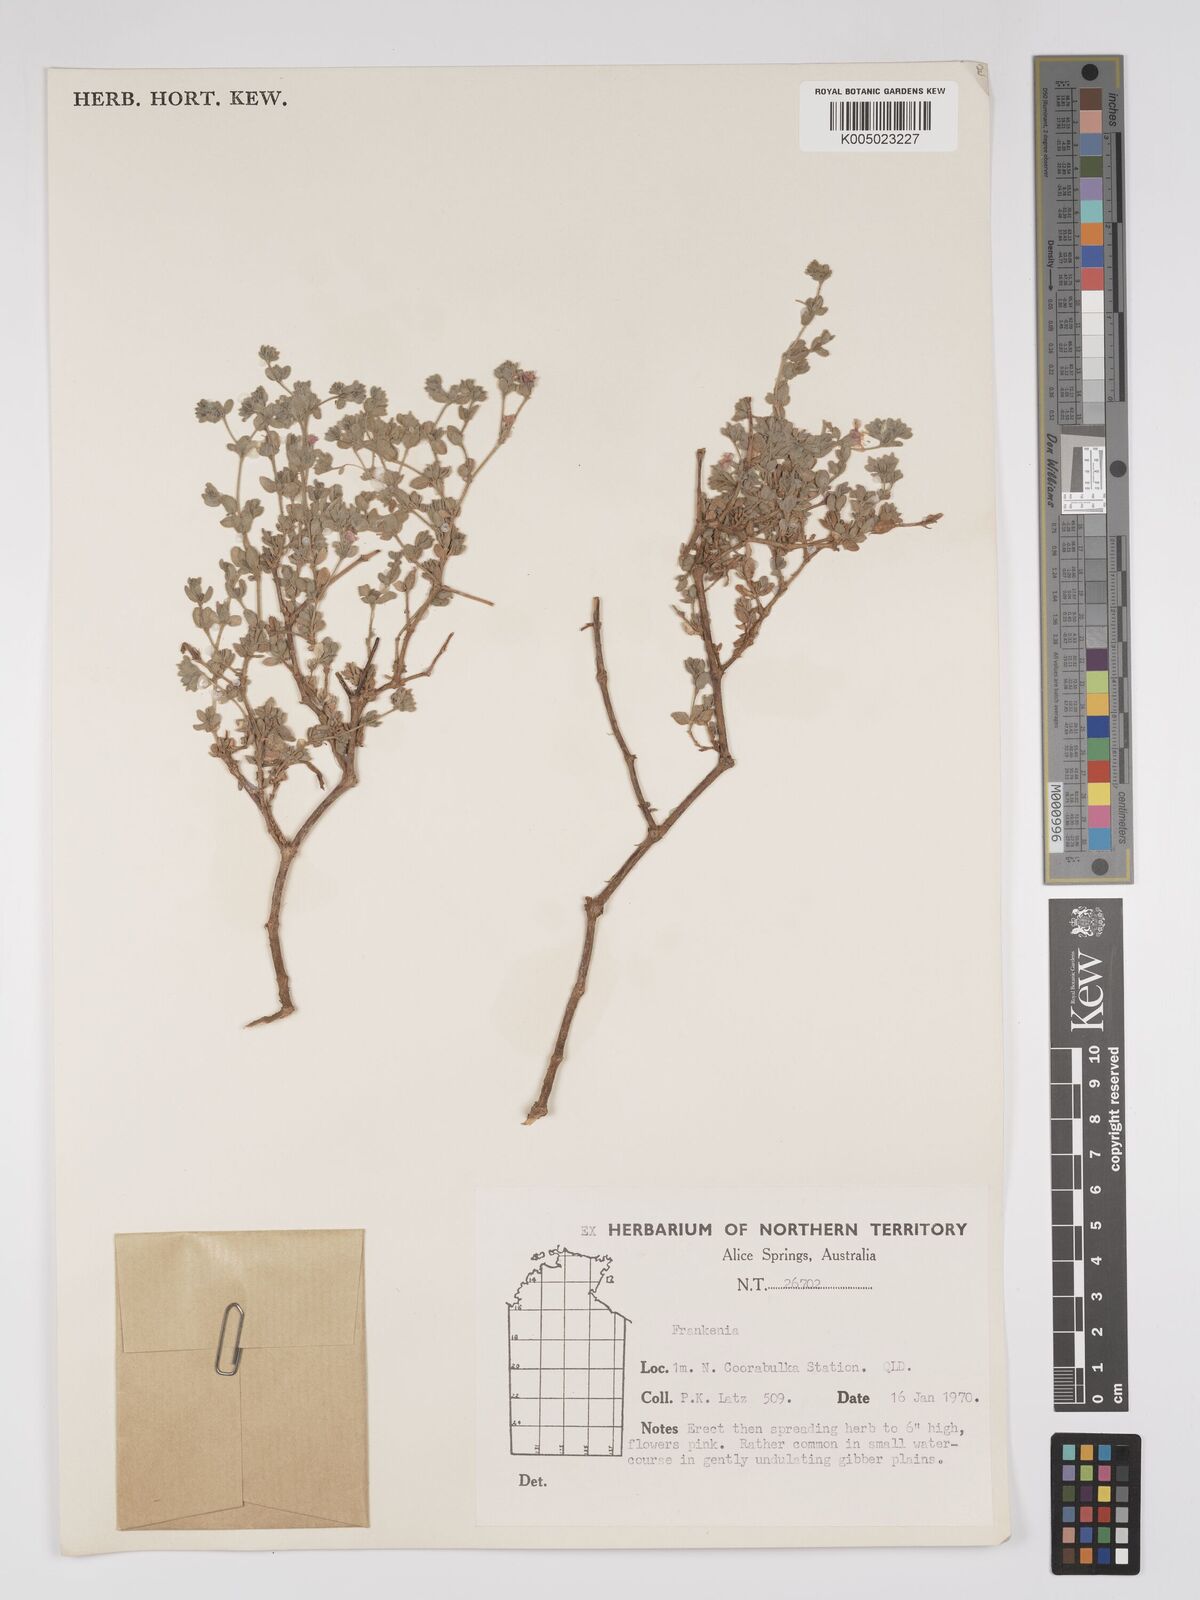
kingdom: Plantae
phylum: Tracheophyta
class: Magnoliopsida
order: Caryophyllales
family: Frankeniaceae
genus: Frankenia
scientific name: Frankenia
